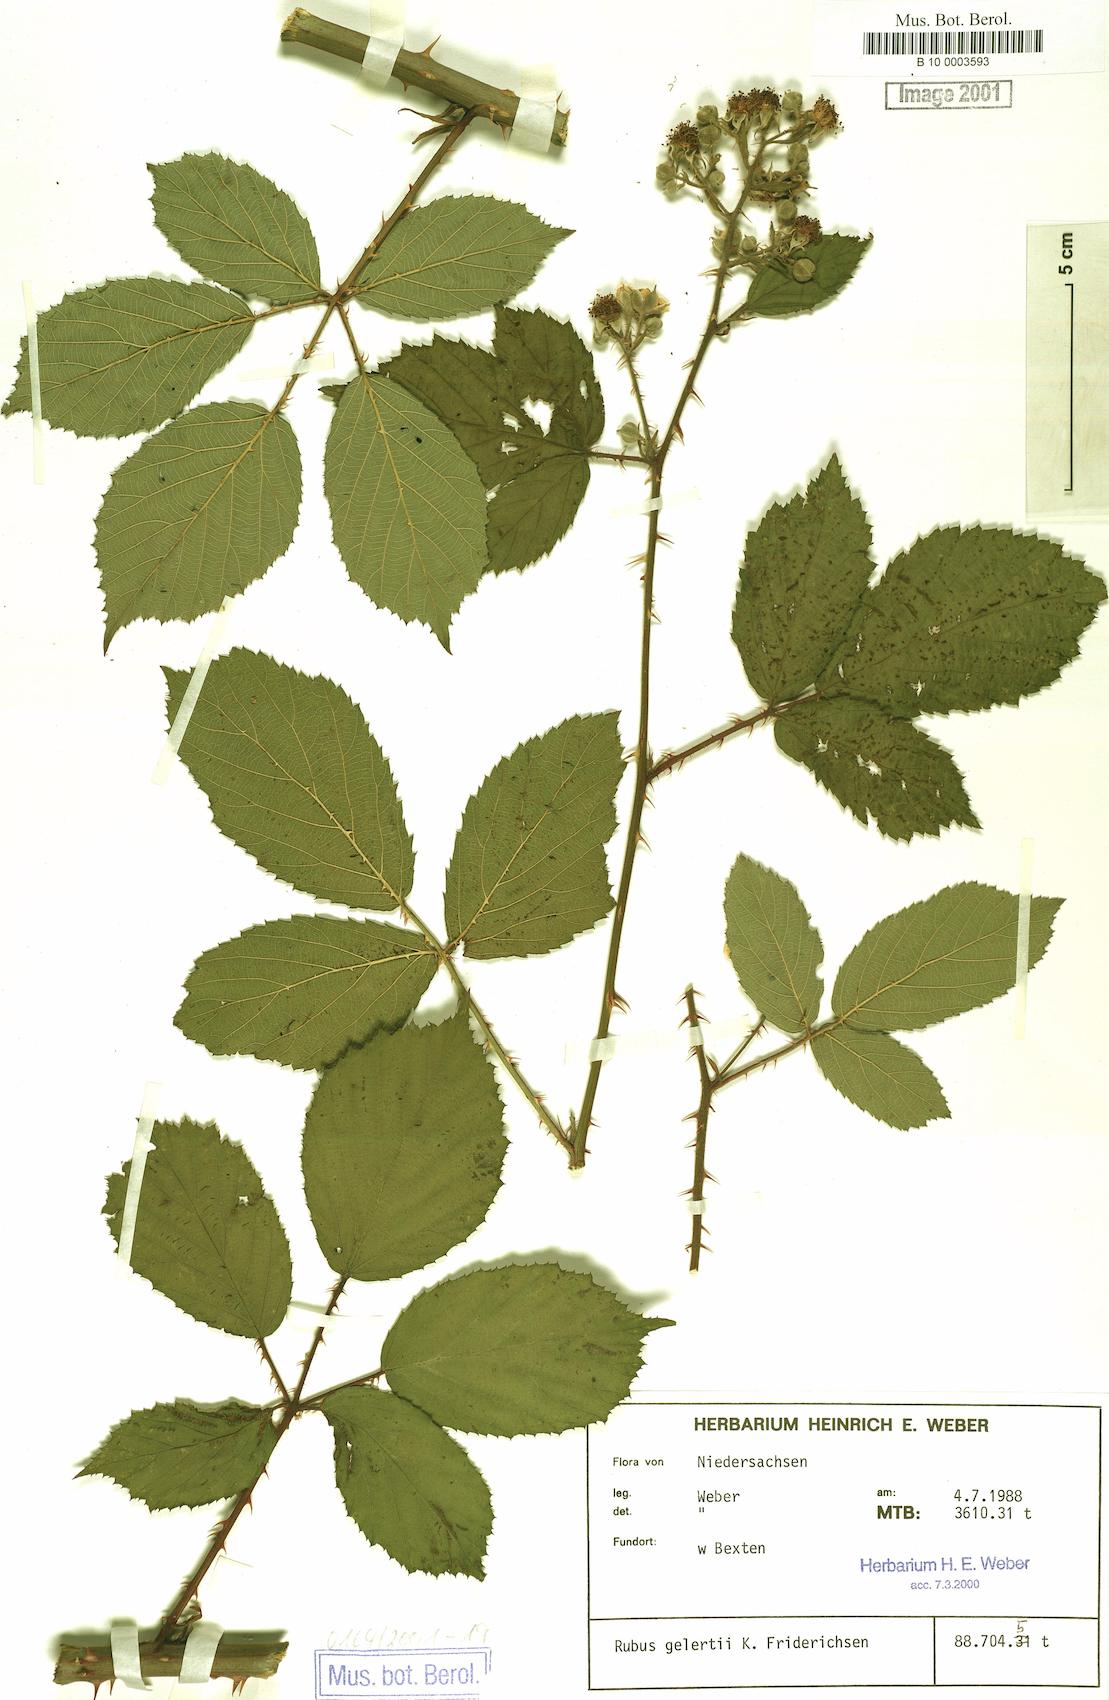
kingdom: Plantae
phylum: Tracheophyta
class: Magnoliopsida
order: Rosales
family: Rosaceae
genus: Rubus
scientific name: Rubus gelertii
